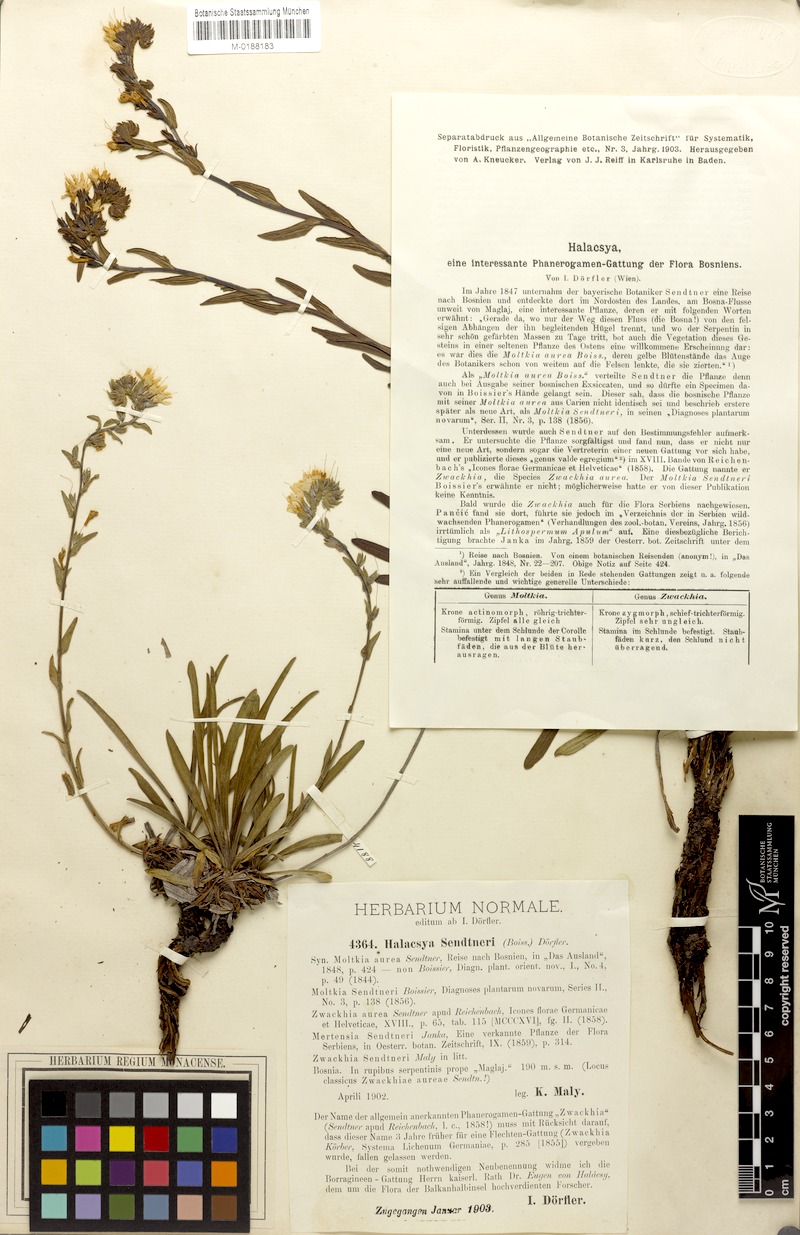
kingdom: Plantae
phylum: Tracheophyta
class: Magnoliopsida
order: Boraginales
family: Boraginaceae
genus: Halacsya
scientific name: Halacsya sendtneri
